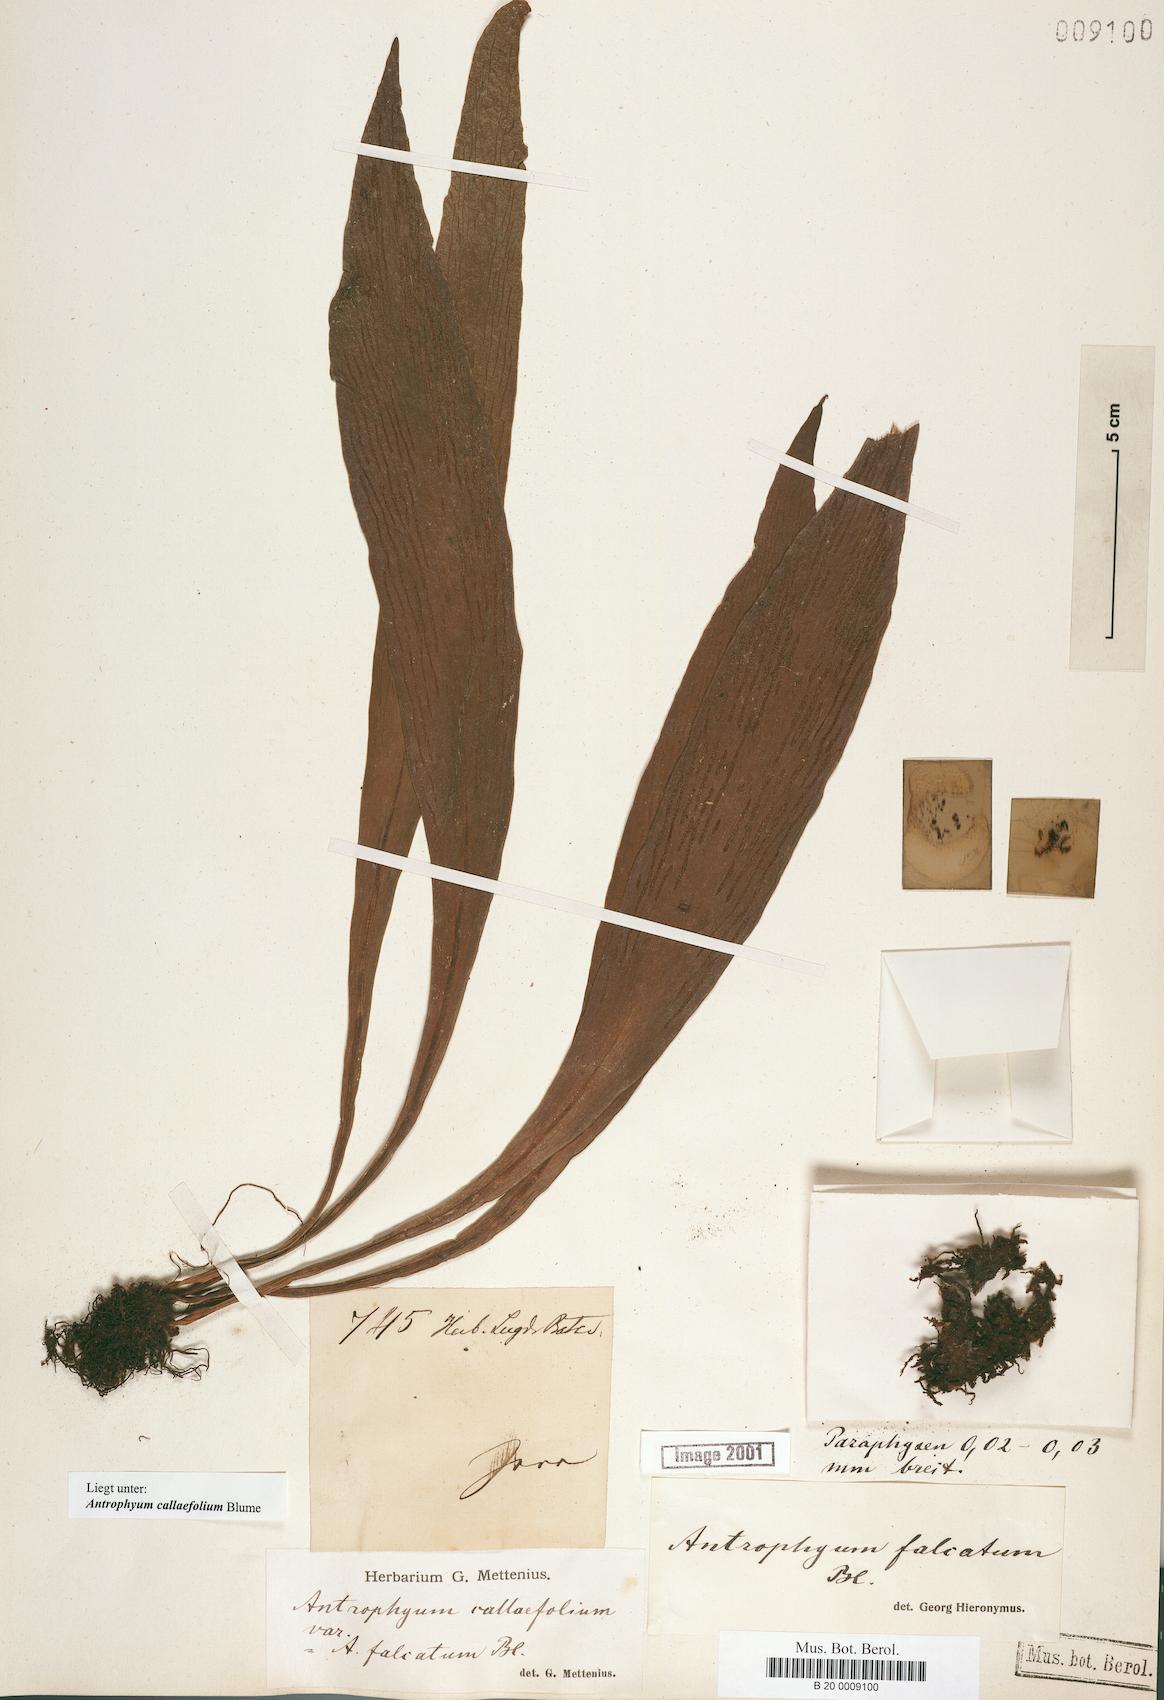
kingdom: Plantae
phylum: Tracheophyta
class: Polypodiopsida
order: Polypodiales
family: Pteridaceae
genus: Antrophyum
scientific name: Antrophyum callifolium
